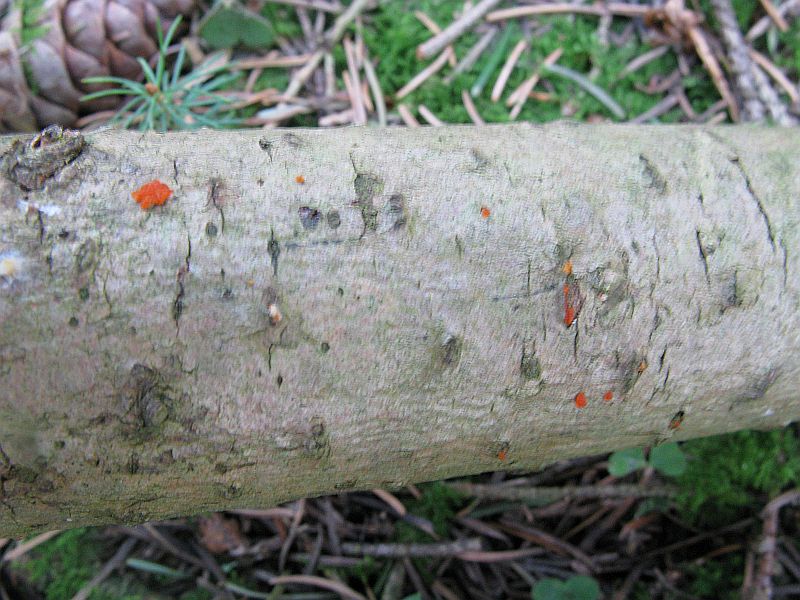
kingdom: Fungi
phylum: Basidiomycota
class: Dacrymycetes
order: Dacrymycetales
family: Dacrymycetaceae
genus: Dacrymyces
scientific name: Dacrymyces stillatus
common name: almindelig tåresvamp
